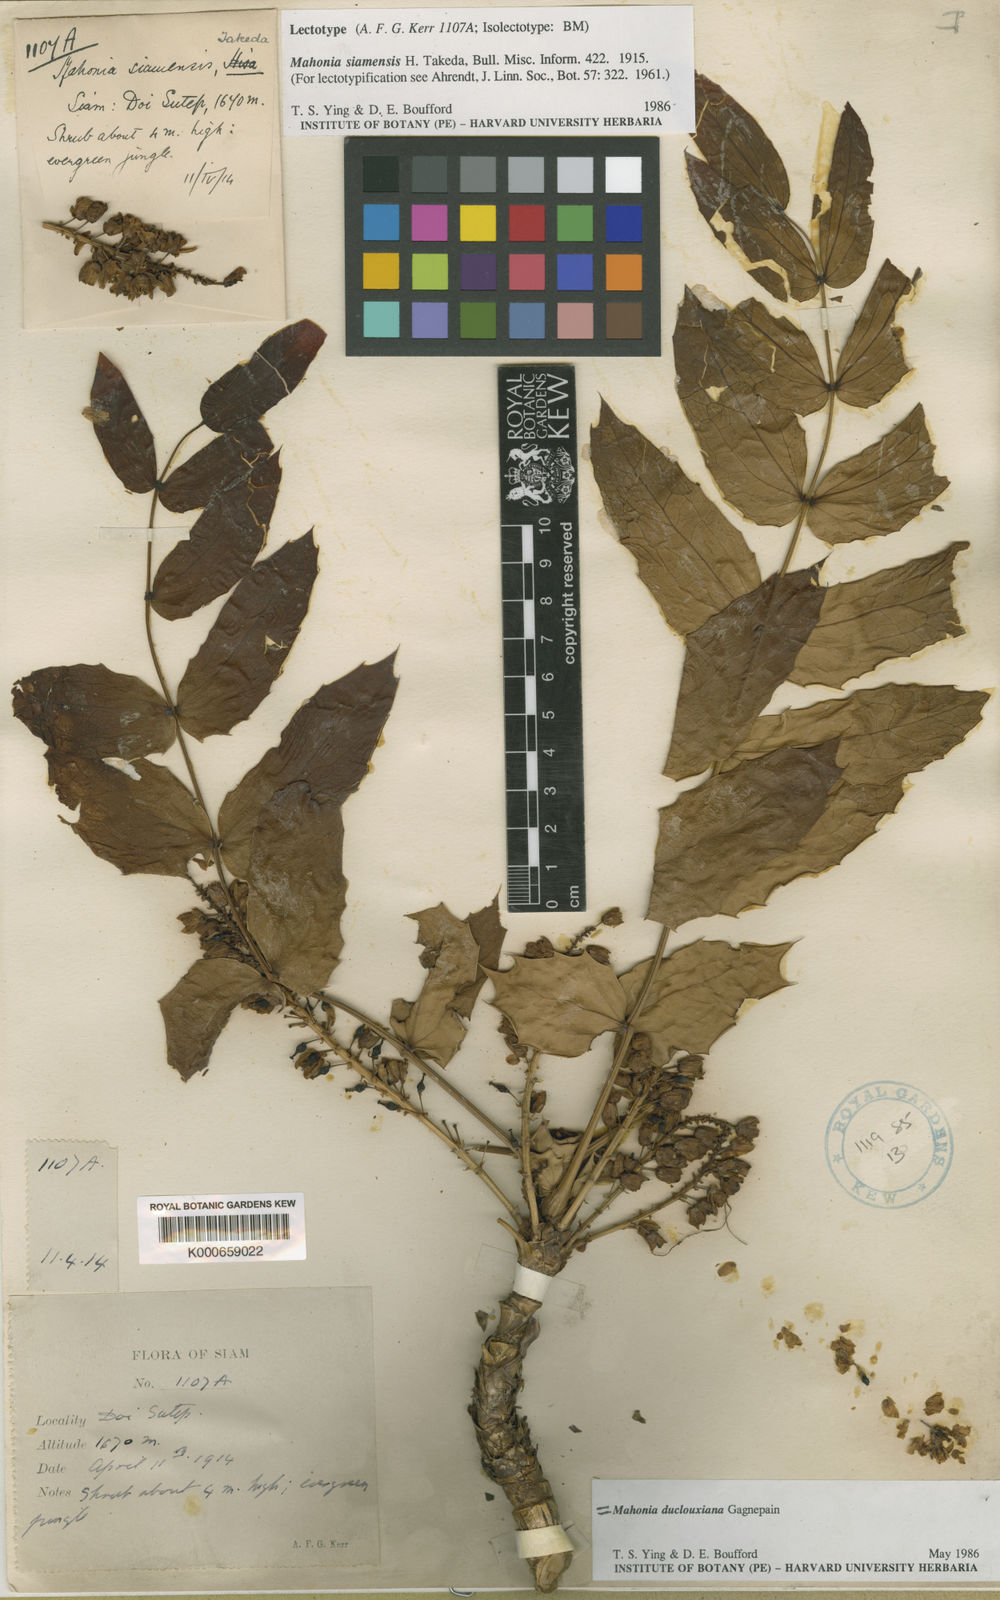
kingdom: Plantae
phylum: Tracheophyta
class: Magnoliopsida
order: Ranunculales
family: Berberidaceae
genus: Mahonia
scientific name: Mahonia napaulensis
